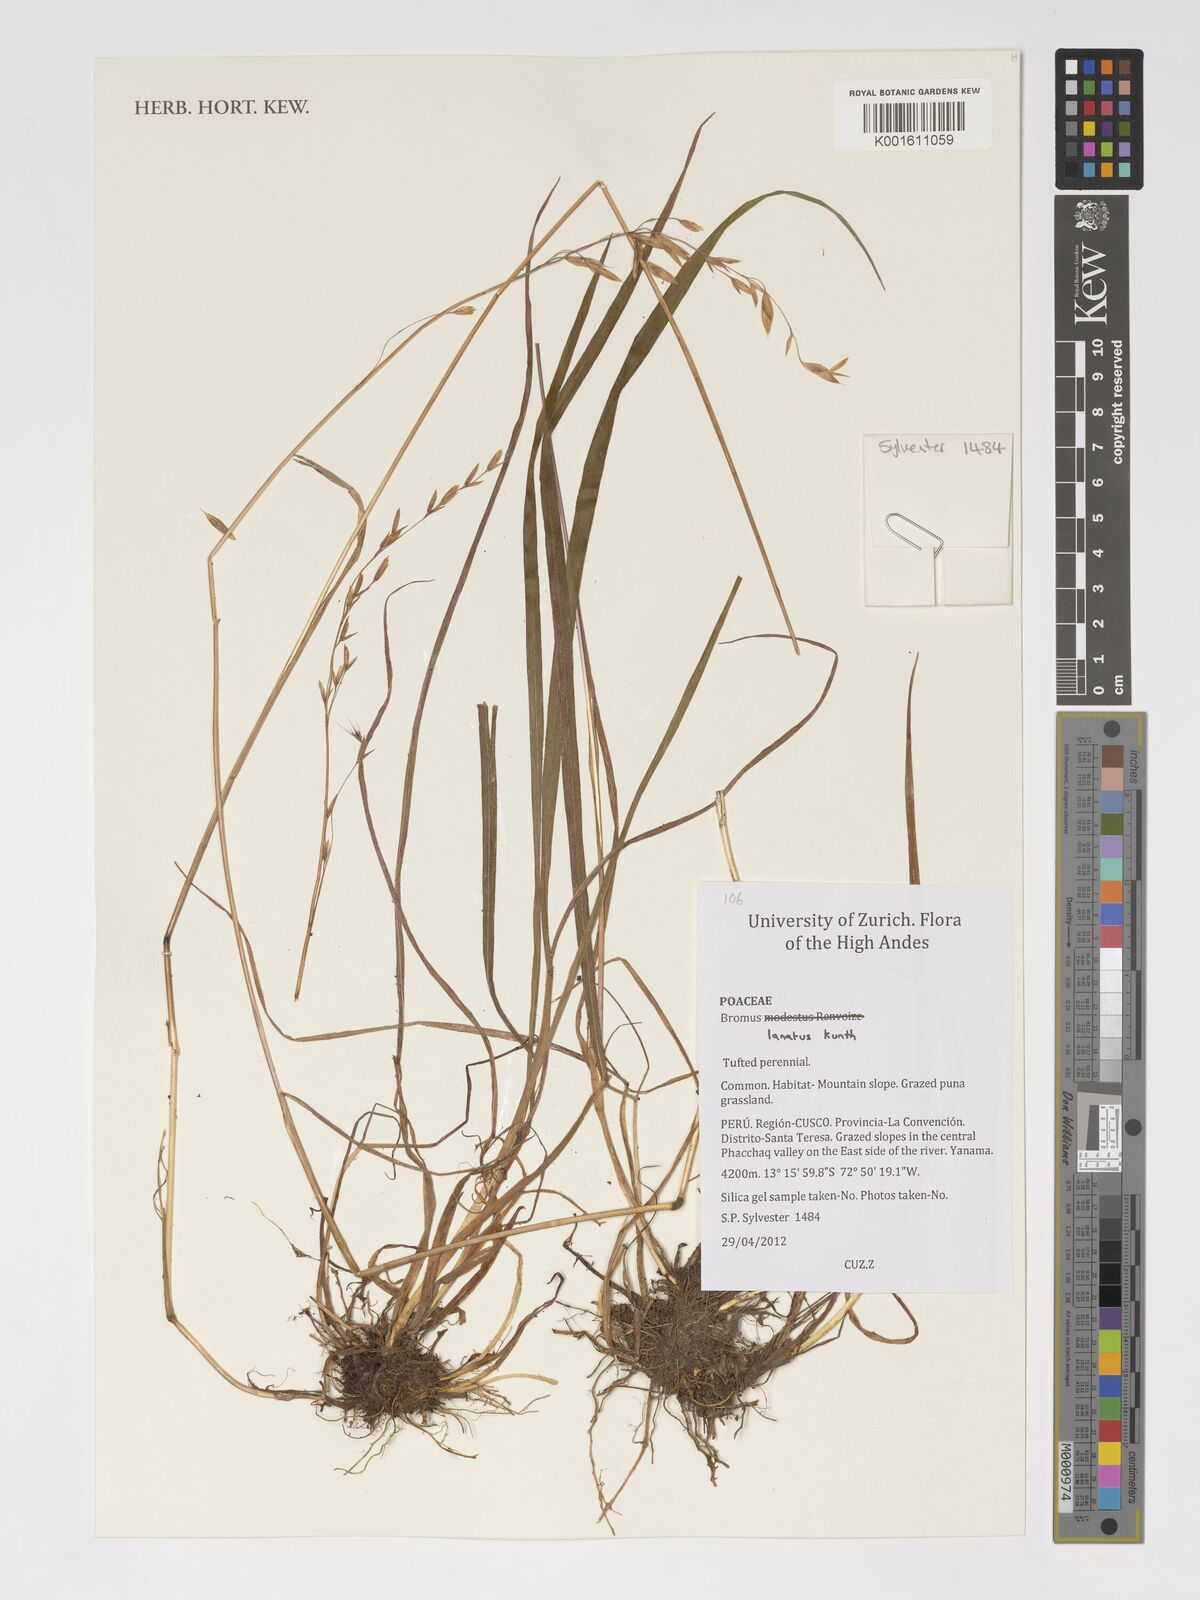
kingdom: Plantae
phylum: Tracheophyta
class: Liliopsida
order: Poales
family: Poaceae
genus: Bromus
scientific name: Bromus lanatus
